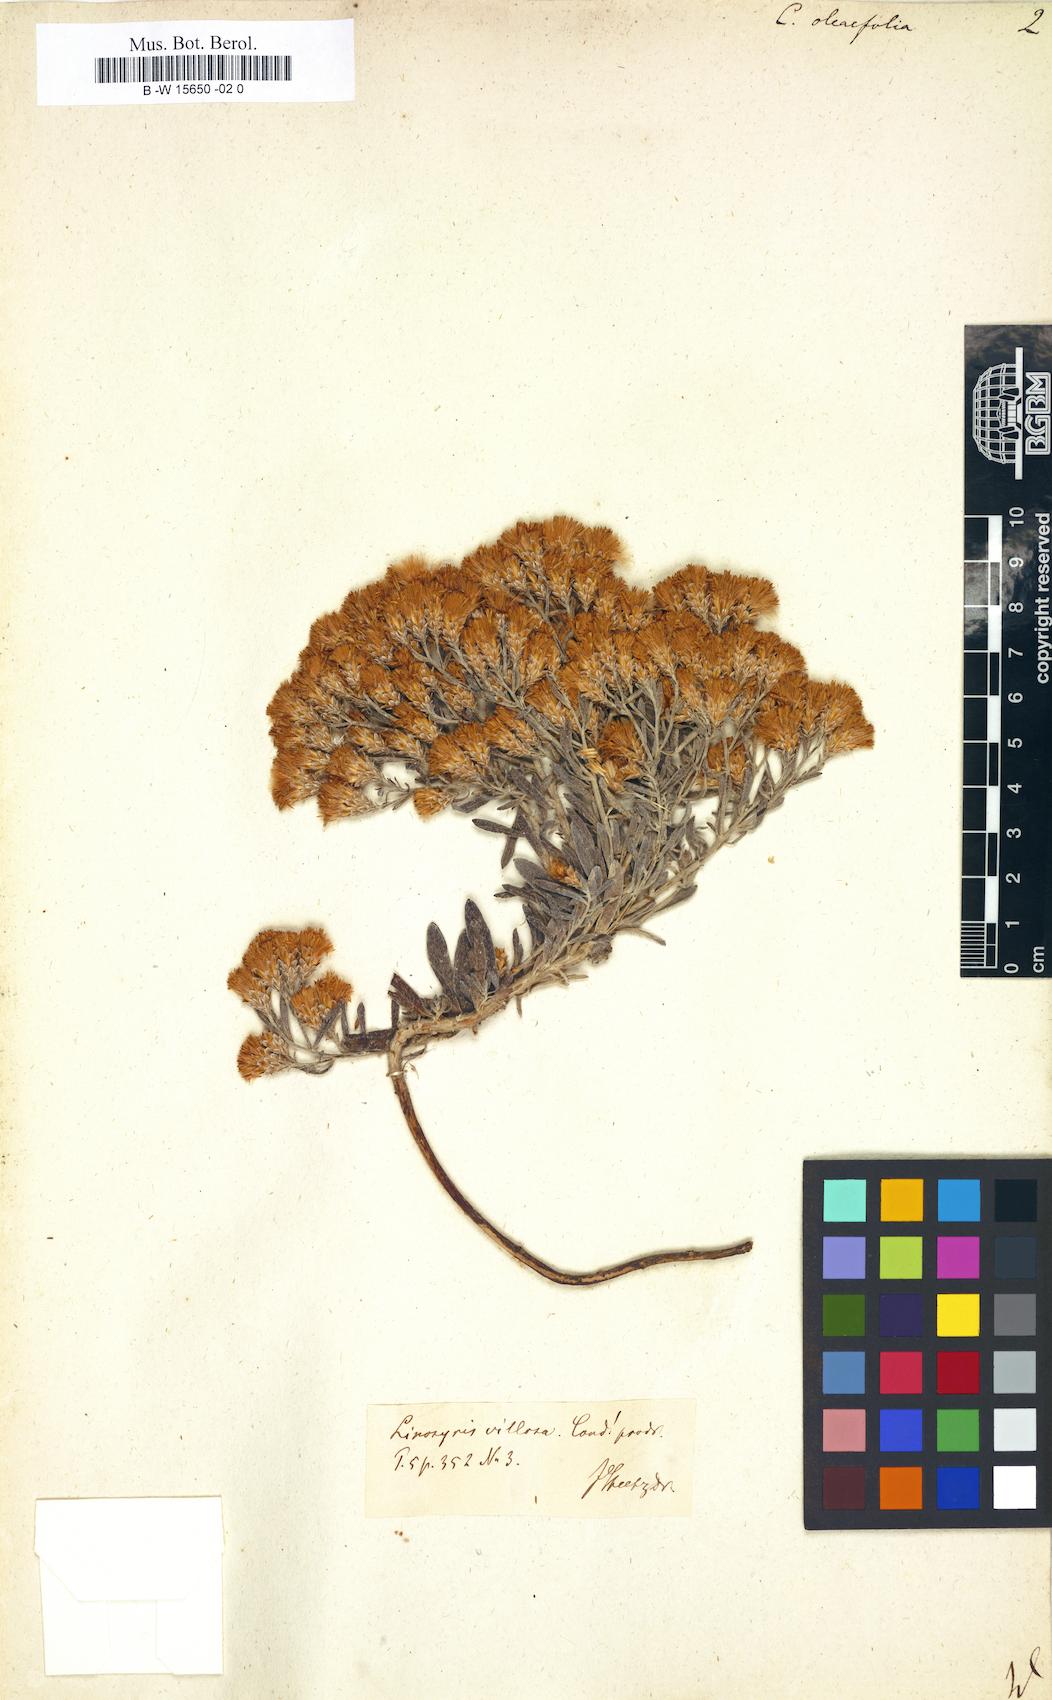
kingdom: Plantae
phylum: Tracheophyta
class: Magnoliopsida
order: Asterales
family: Asteraceae
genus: Galatella
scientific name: Galatella villosa
